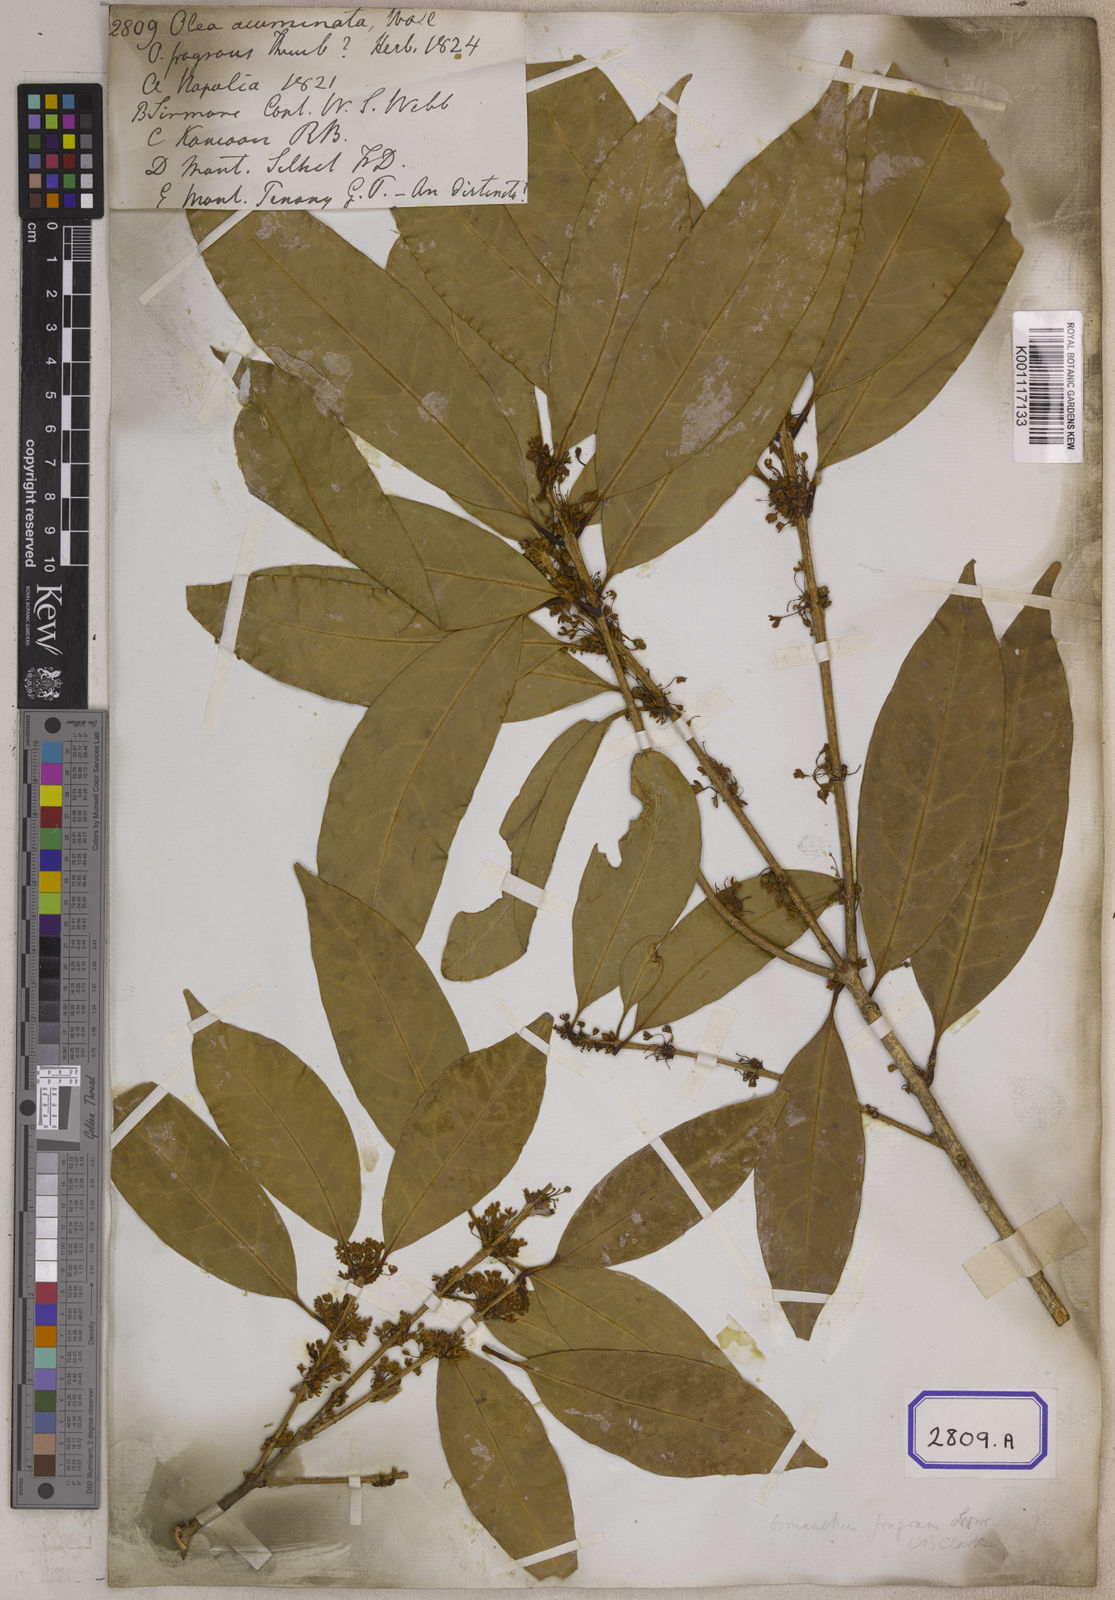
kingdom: Plantae
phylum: Tracheophyta
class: Magnoliopsida
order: Lamiales
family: Oleaceae
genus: Olea
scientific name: Olea
